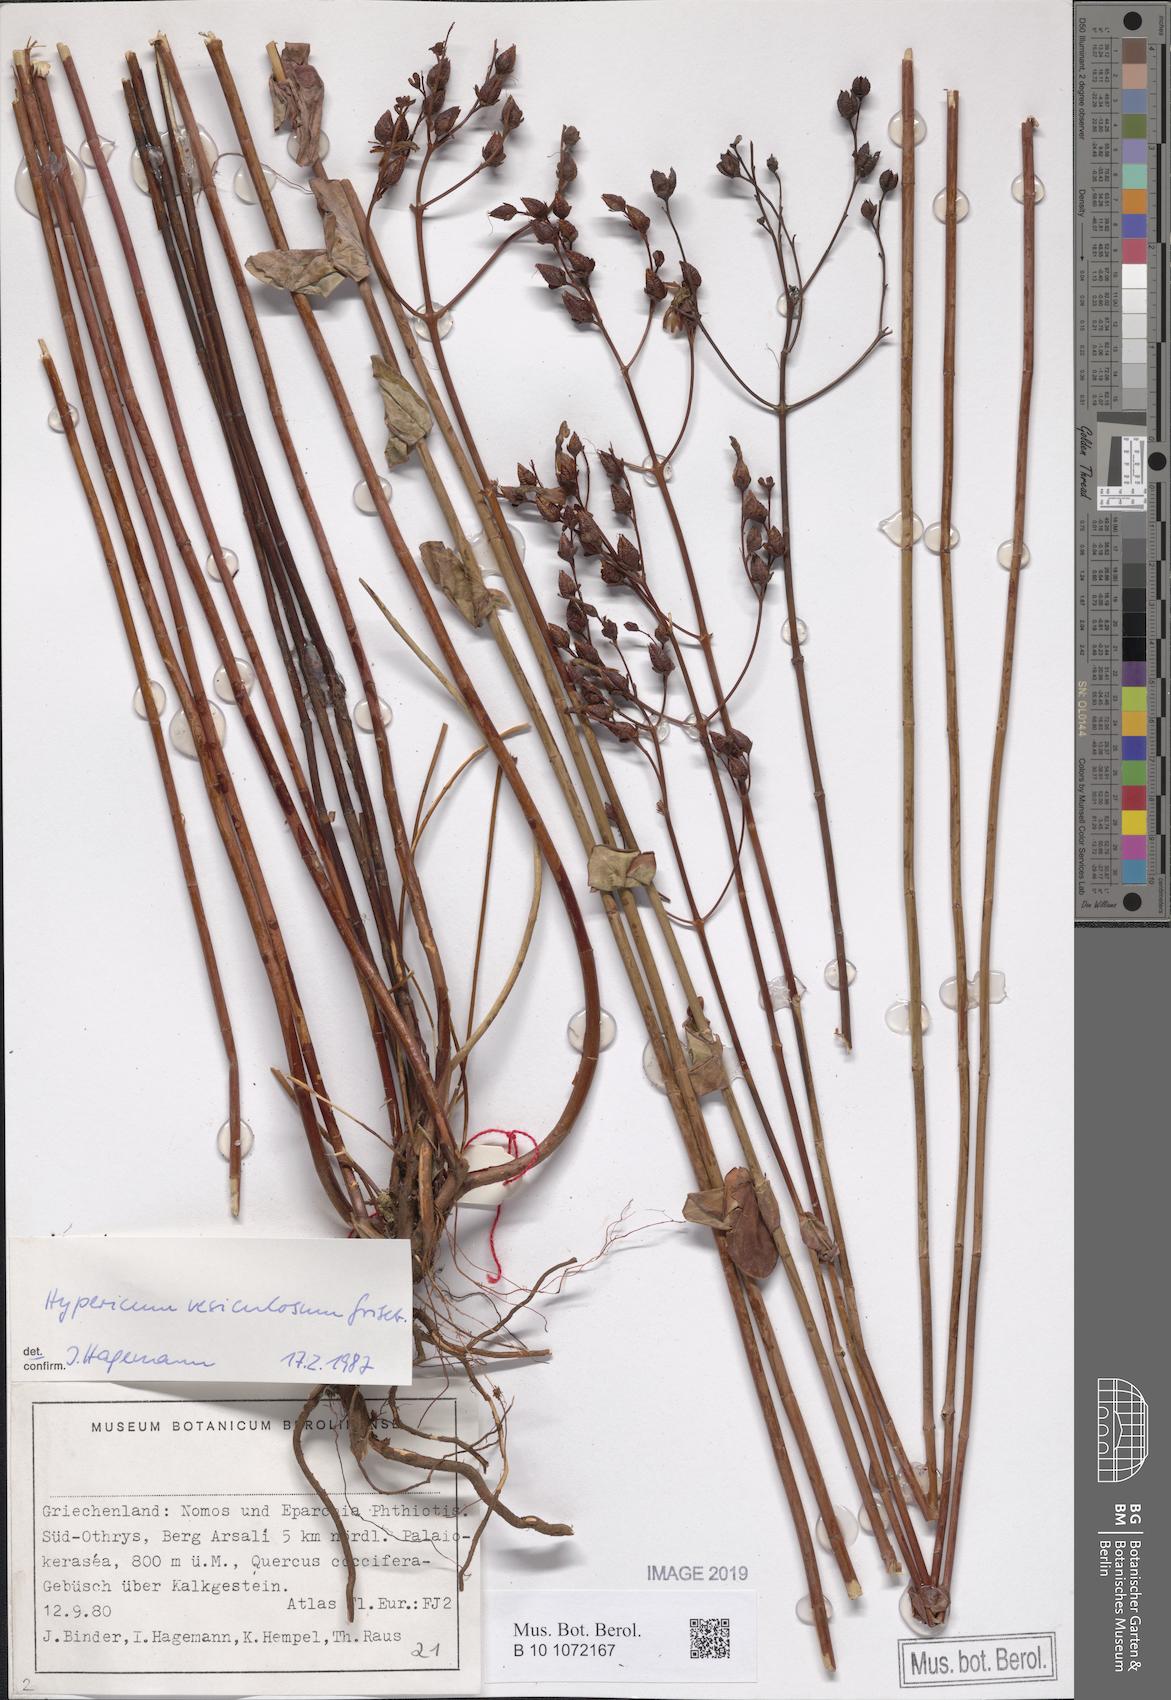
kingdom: Plantae
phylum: Tracheophyta
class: Magnoliopsida
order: Malpighiales
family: Hypericaceae
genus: Hypericum
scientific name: Hypericum vesiculosum
